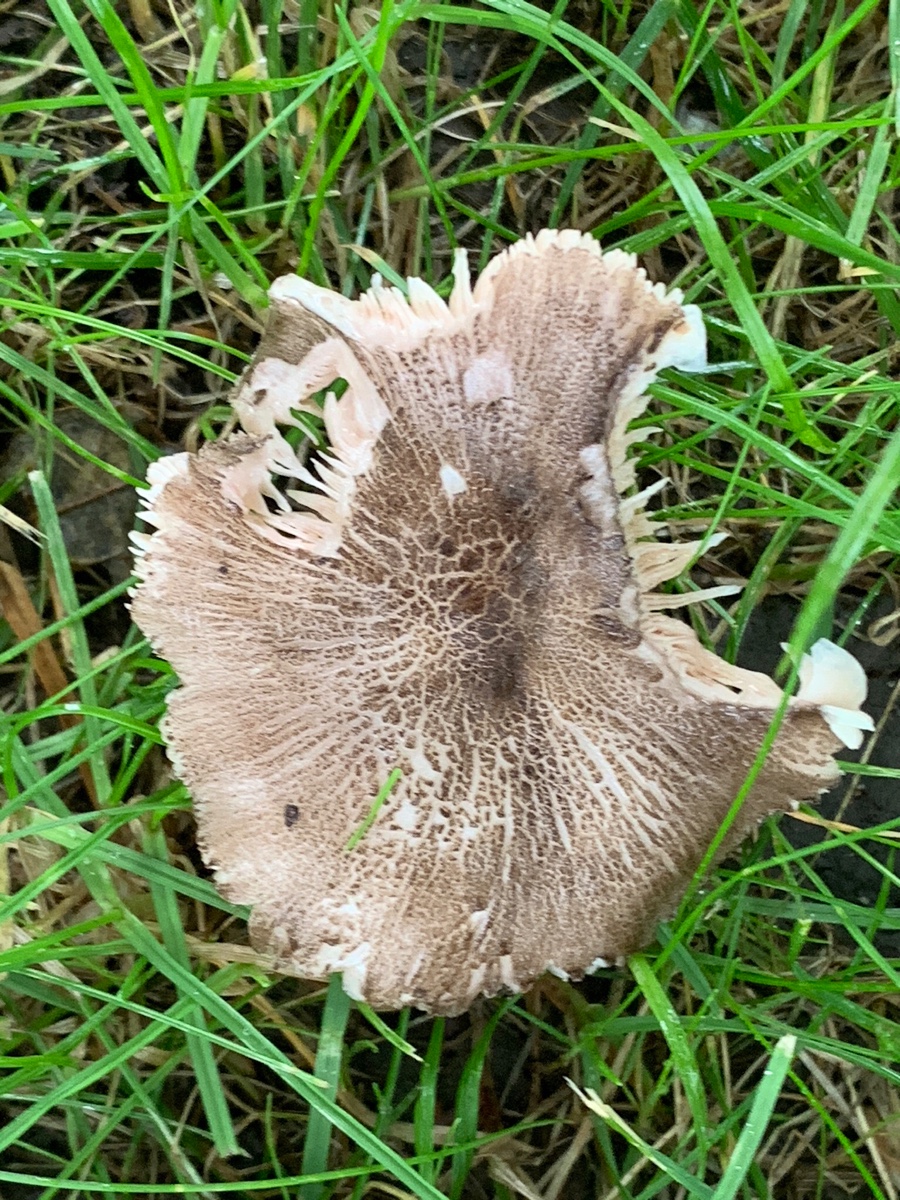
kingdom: Fungi
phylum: Basidiomycota
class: Agaricomycetes
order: Agaricales
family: Pluteaceae
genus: Pluteus
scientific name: Pluteus
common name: gråfibret skærmhat
